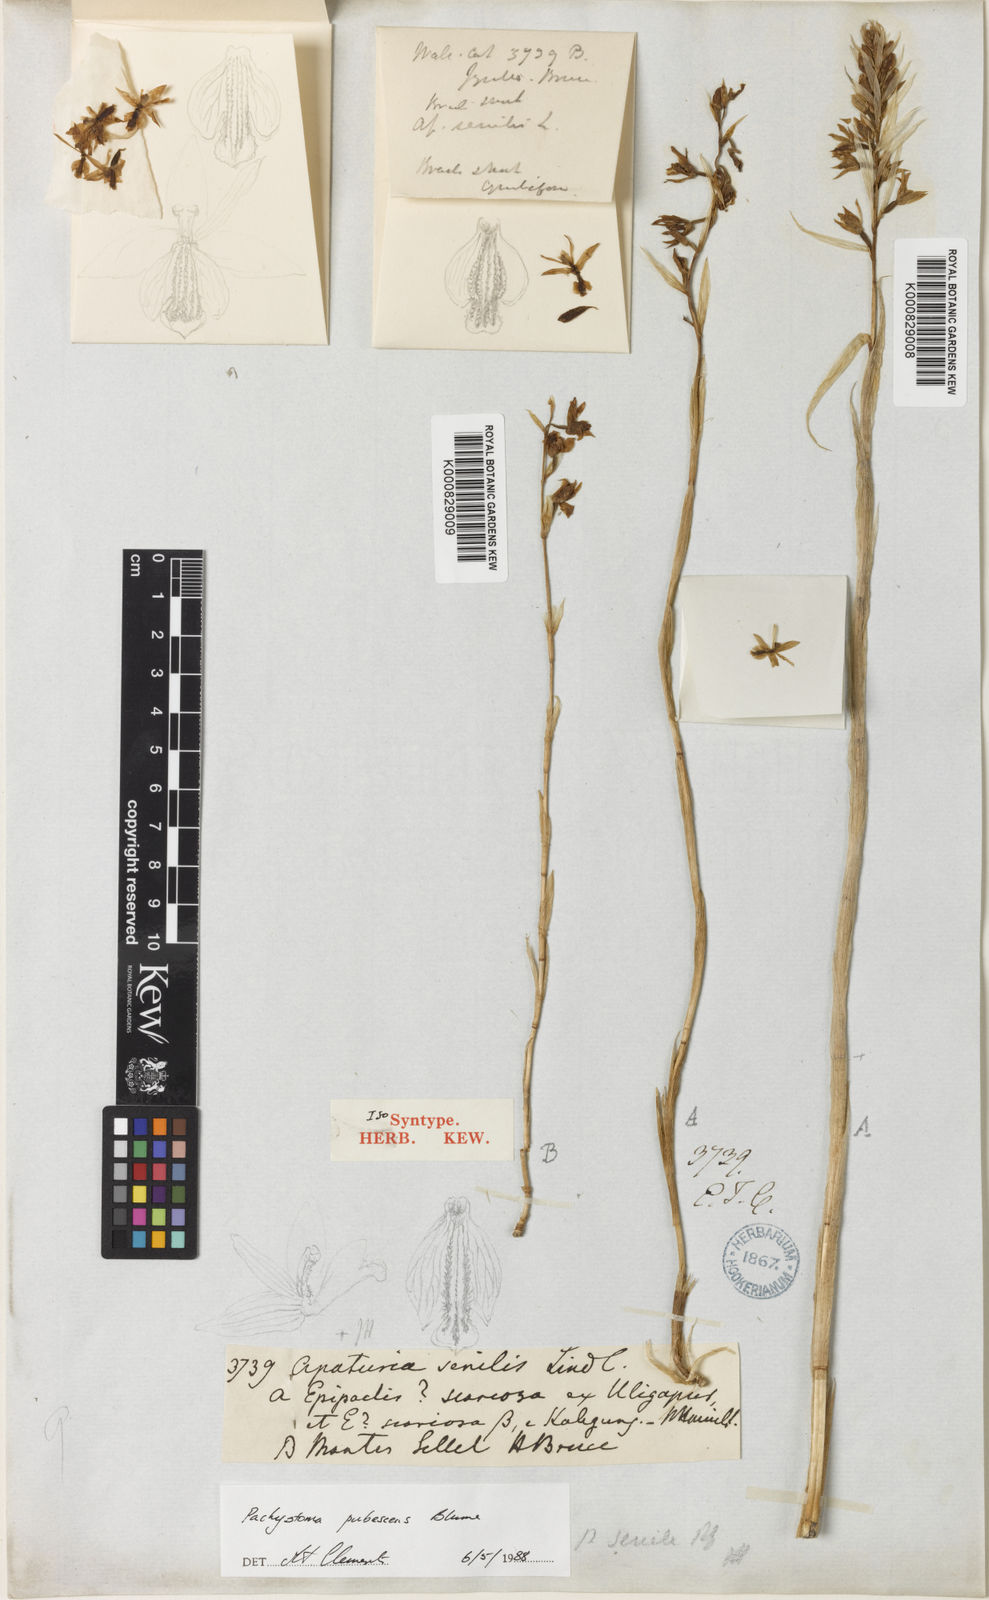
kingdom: Plantae
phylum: Tracheophyta
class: Liliopsida
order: Asparagales
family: Orchidaceae
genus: Pachystoma
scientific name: Pachystoma pubescens
